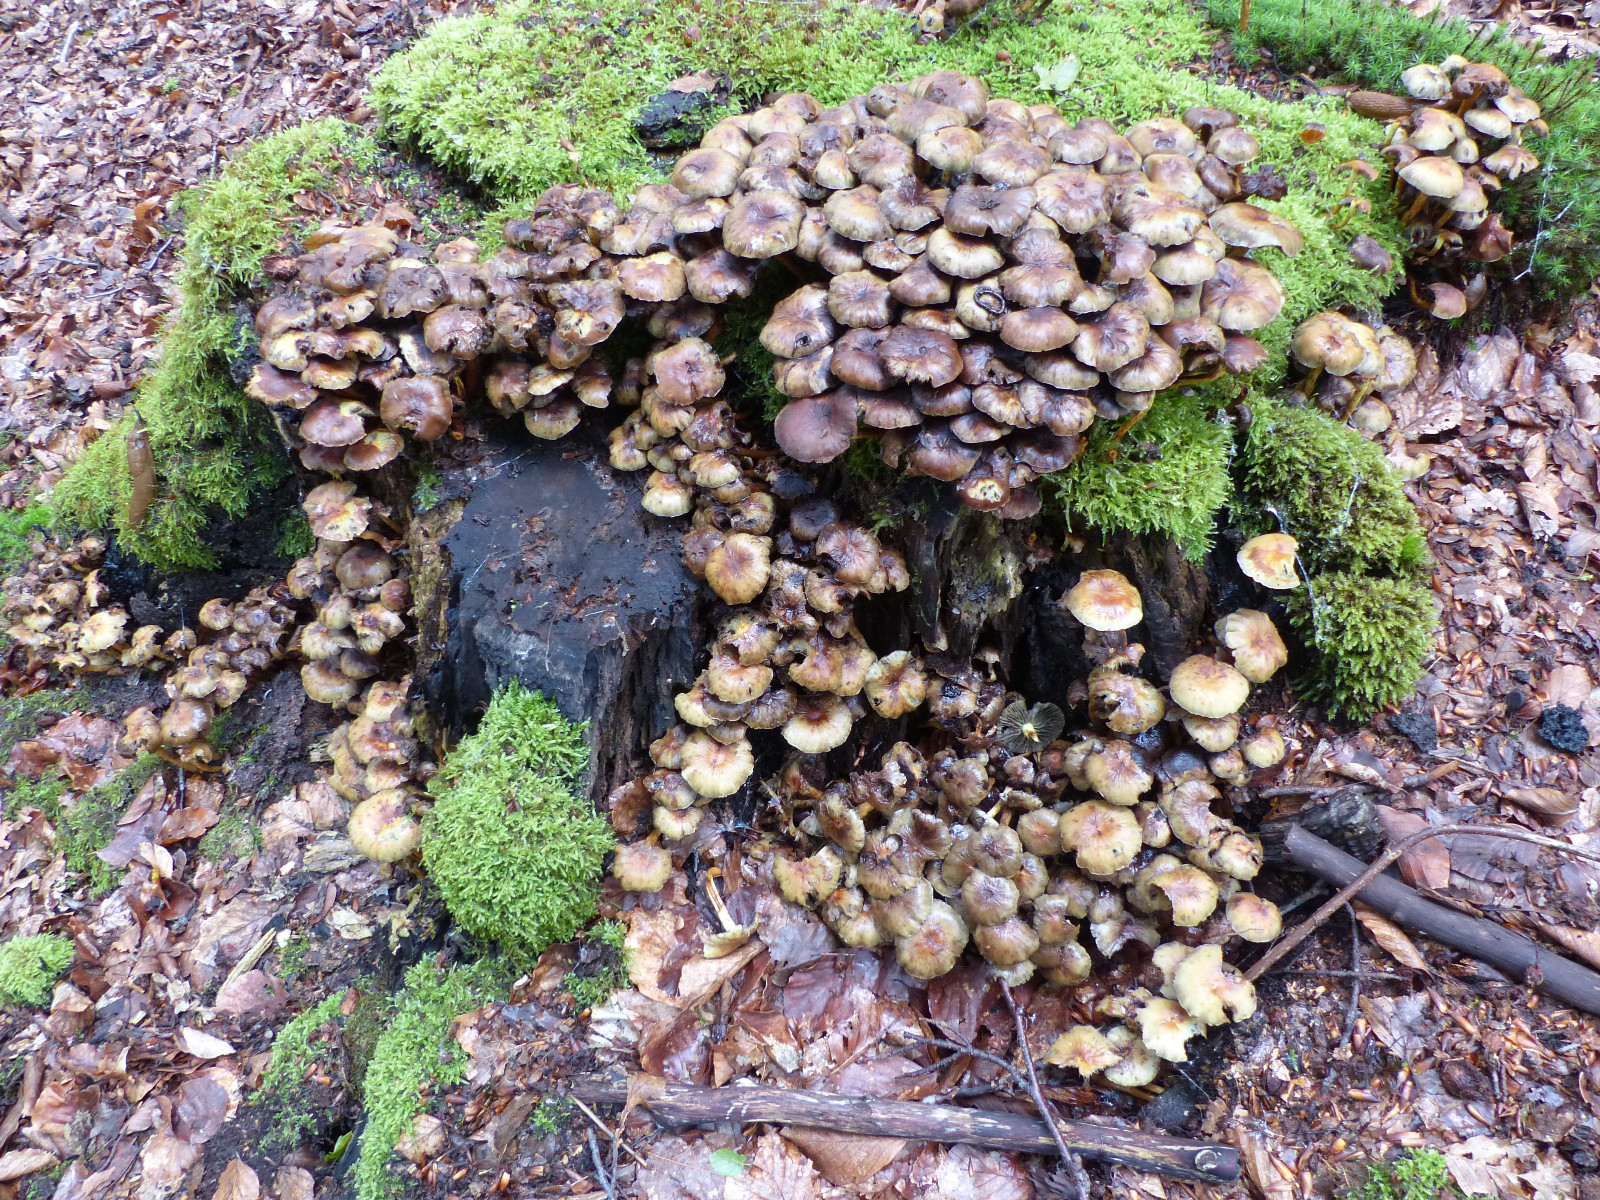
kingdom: Fungi
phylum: Basidiomycota
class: Agaricomycetes
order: Agaricales
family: Strophariaceae
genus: Hypholoma
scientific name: Hypholoma fasciculare
